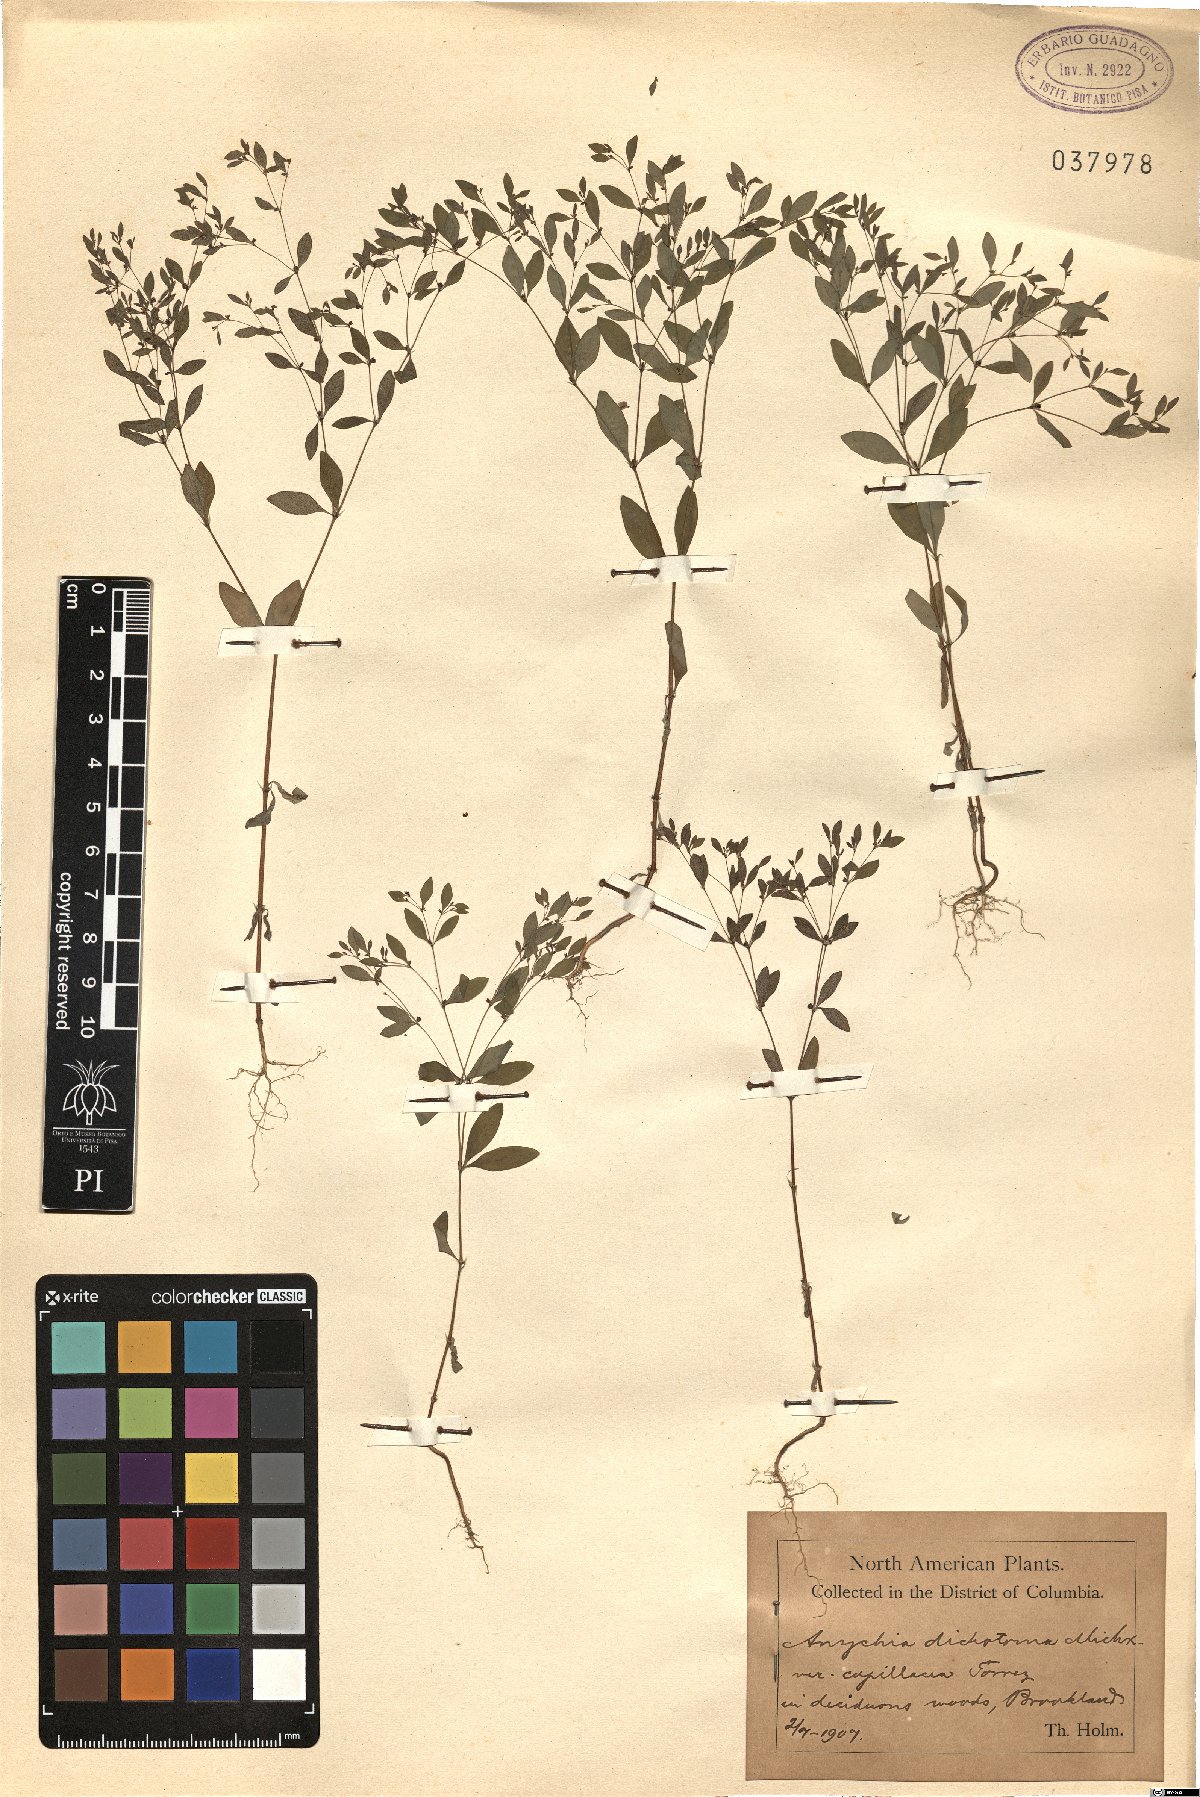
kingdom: Plantae
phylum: Tracheophyta
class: Magnoliopsida
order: Caryophyllales
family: Caryophyllaceae
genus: Paronychia
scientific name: Paronychia canadensis
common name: Canada forked nailwort
